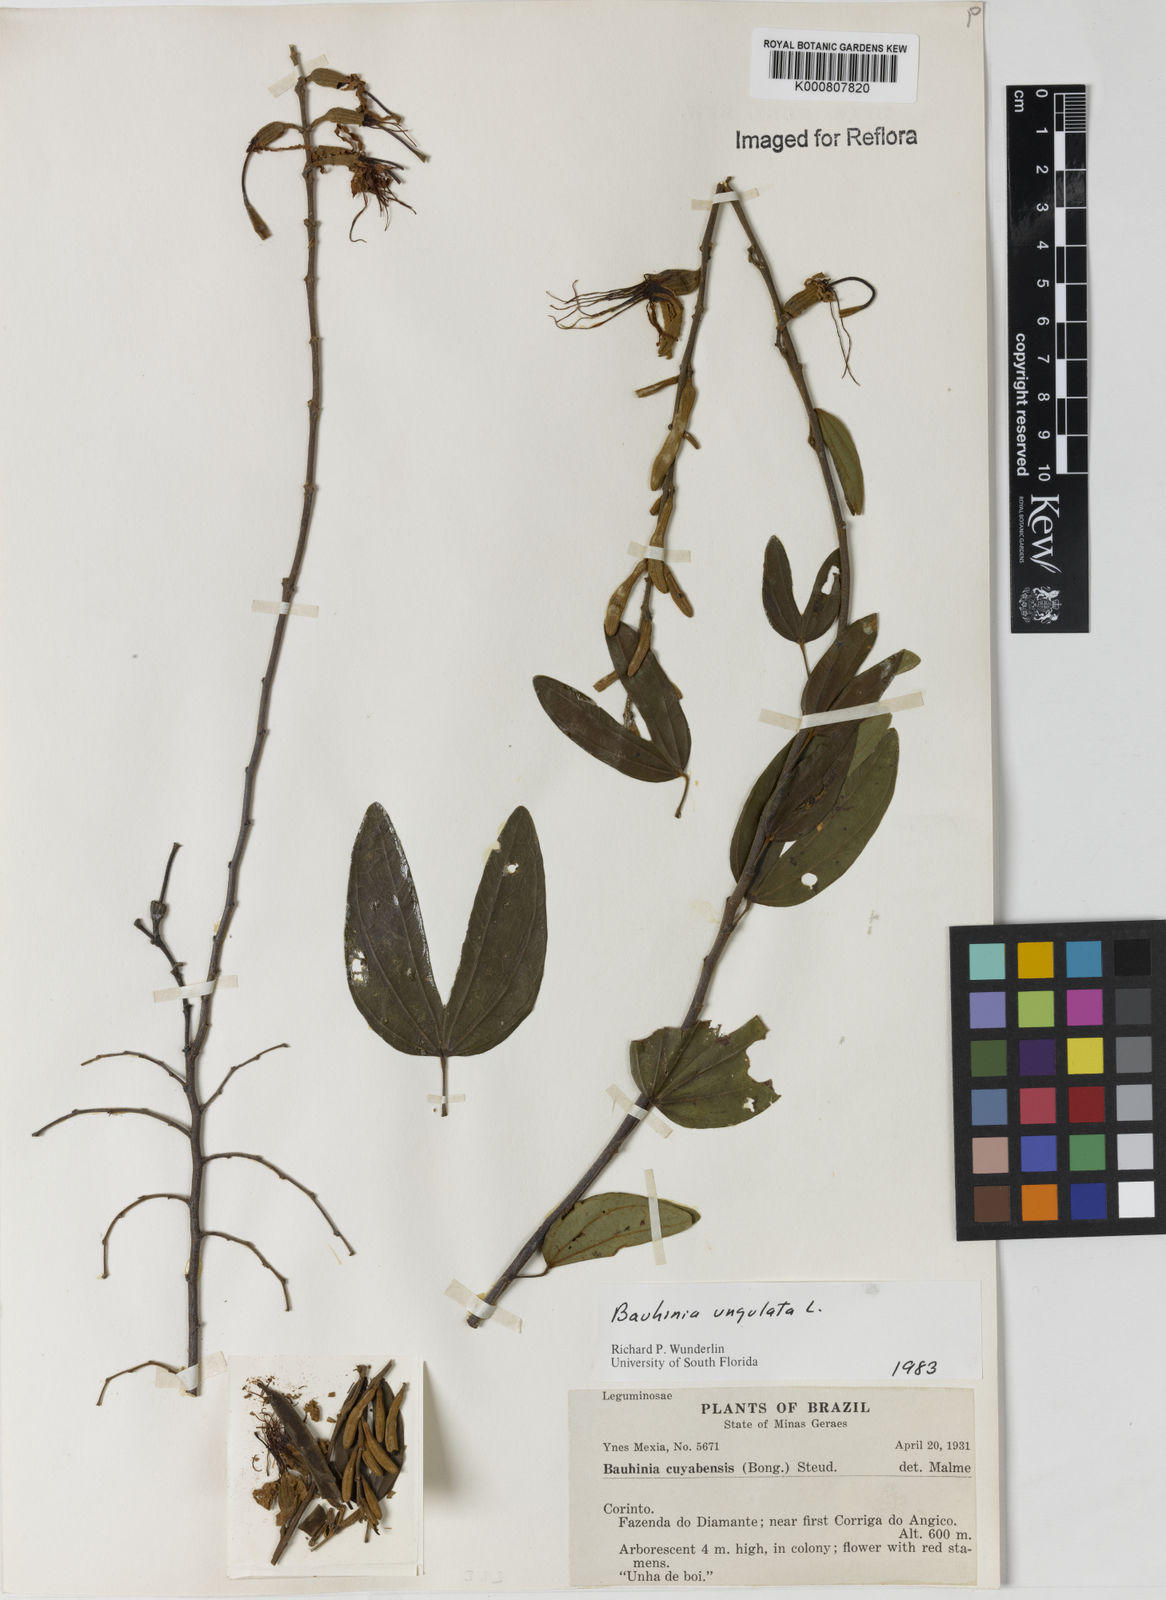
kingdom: Plantae
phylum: Tracheophyta
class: Magnoliopsida
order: Fabales
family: Fabaceae
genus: Bauhinia
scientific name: Bauhinia ungulata
